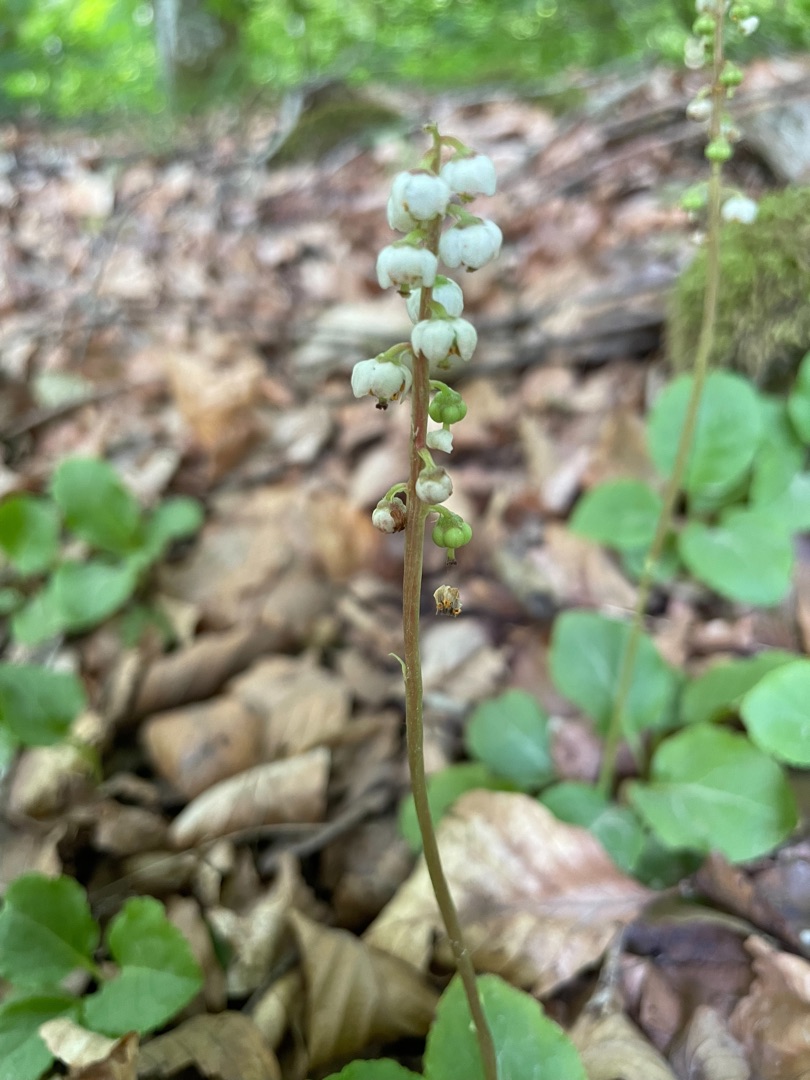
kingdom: Plantae
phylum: Tracheophyta
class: Magnoliopsida
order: Ericales
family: Ericaceae
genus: Pyrola
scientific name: Pyrola media
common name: Klokke-vintergrøn
